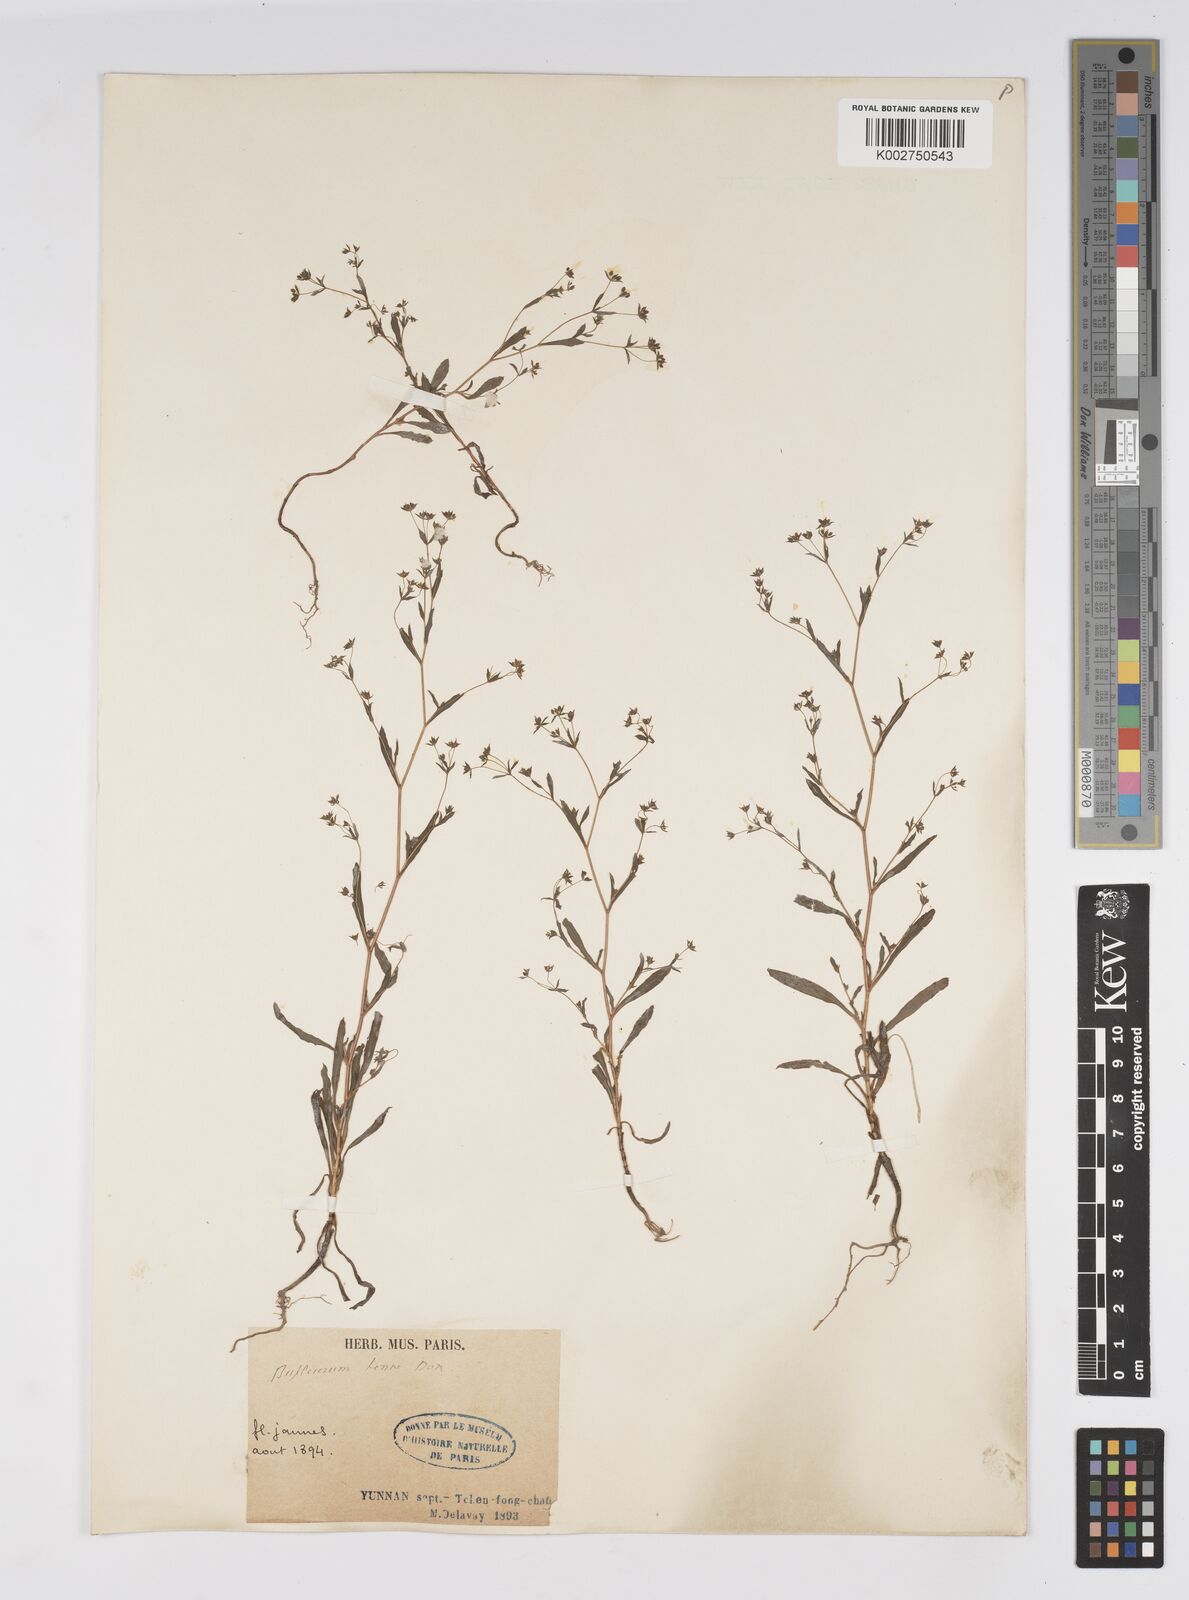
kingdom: Plantae
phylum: Tracheophyta
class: Magnoliopsida
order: Apiales
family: Apiaceae
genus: Bupleurum
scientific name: Bupleurum hamiltonii
